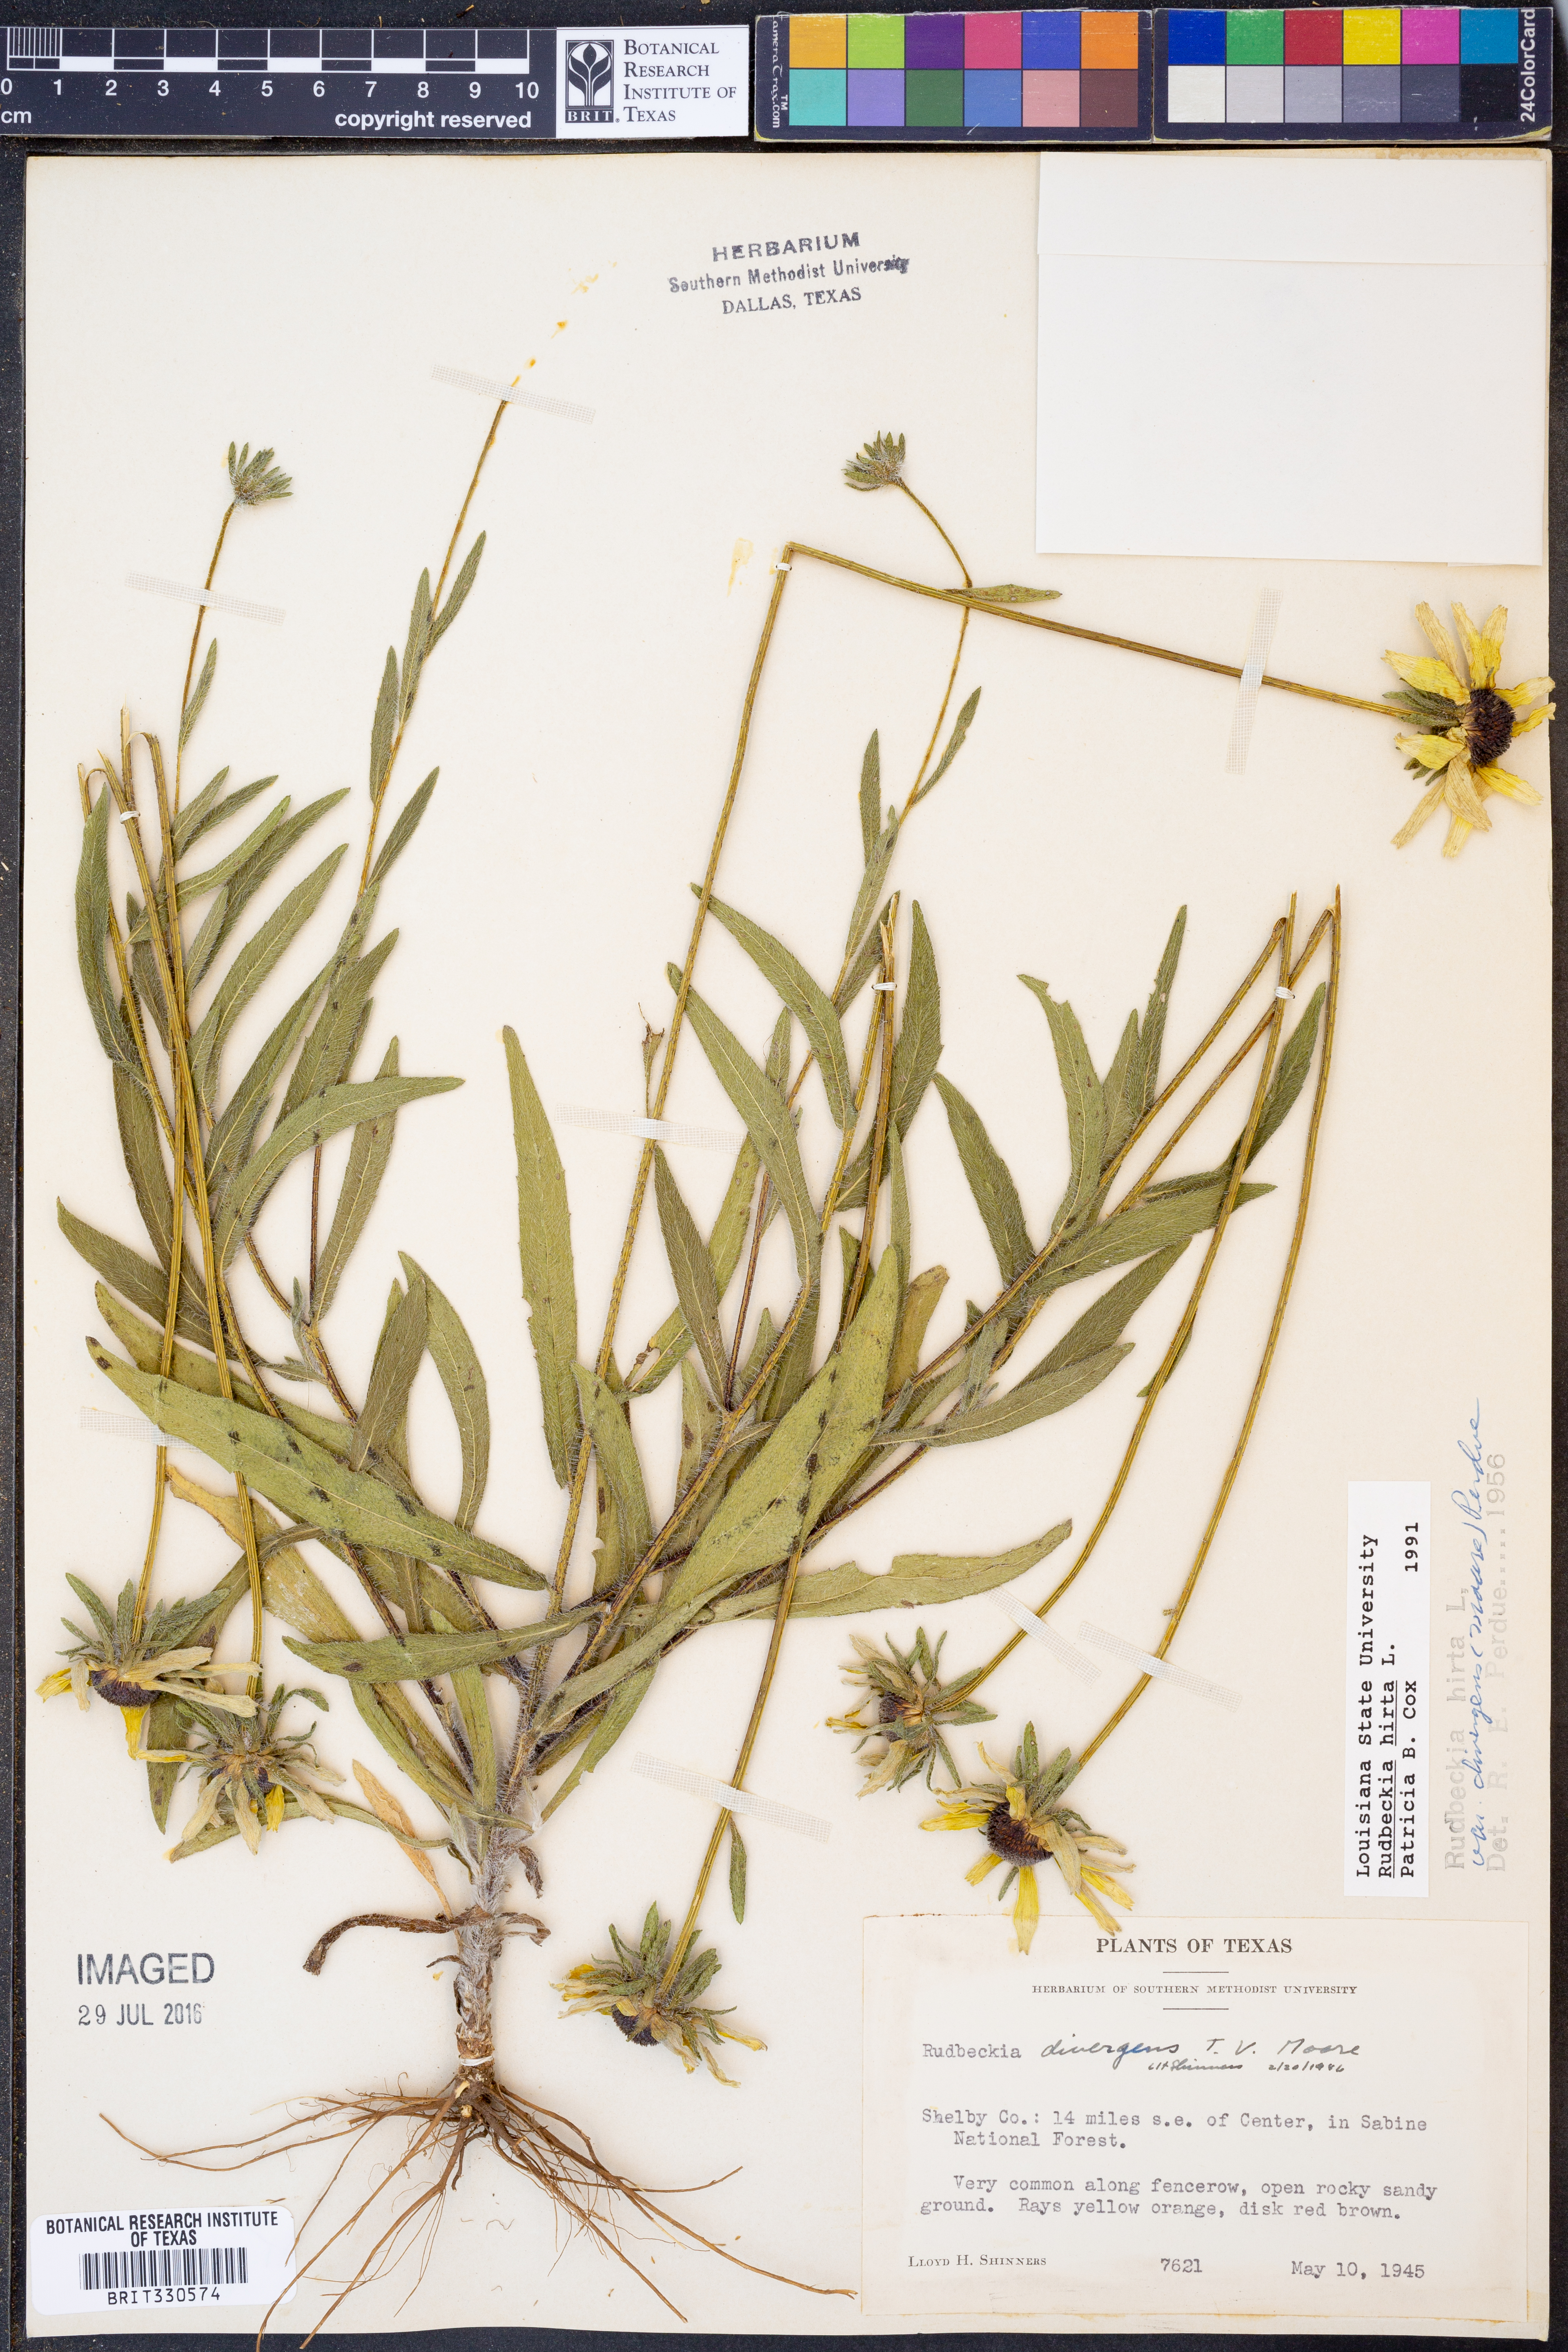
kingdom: Plantae
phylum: Tracheophyta
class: Magnoliopsida
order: Asterales
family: Asteraceae
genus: Rudbeckia
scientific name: Rudbeckia hirta
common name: Black-eyed-susan
